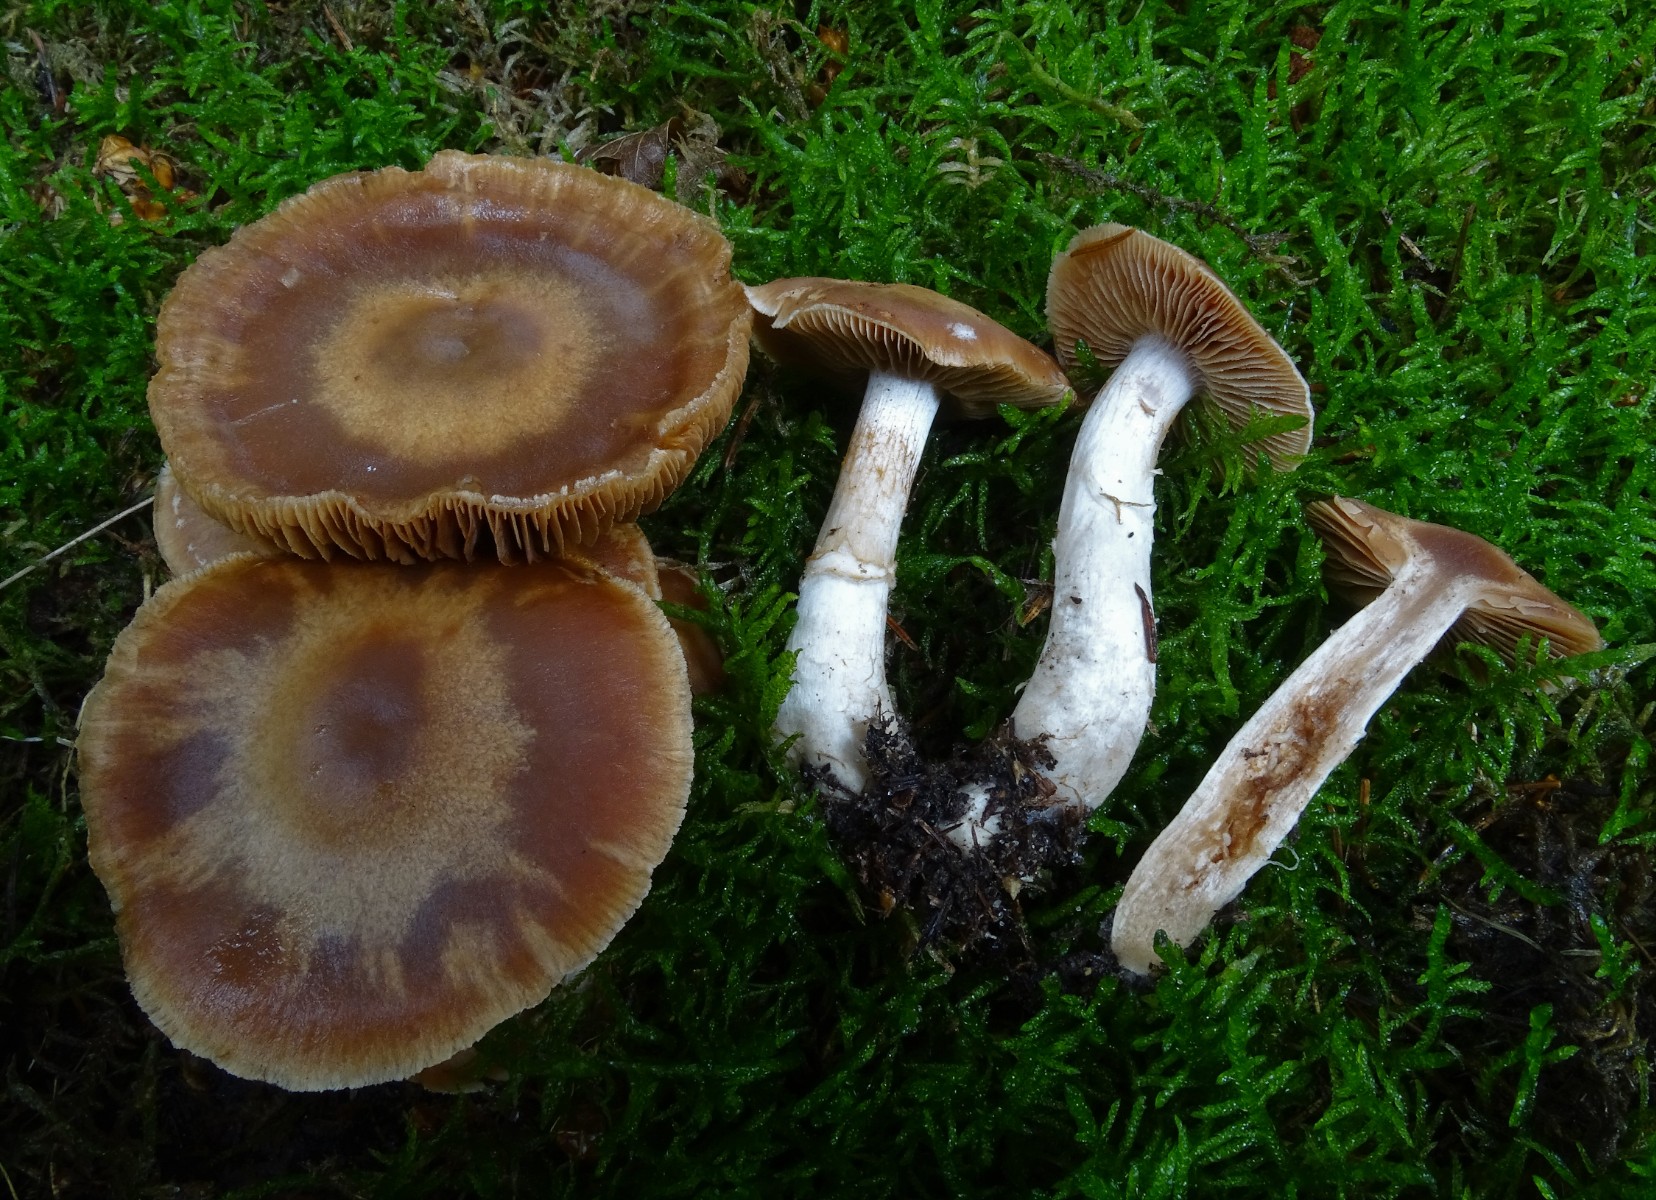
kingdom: Fungi
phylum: Basidiomycota
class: Agaricomycetes
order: Agaricales
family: Cortinariaceae
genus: Cortinarius
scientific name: Cortinarius dolabratus
